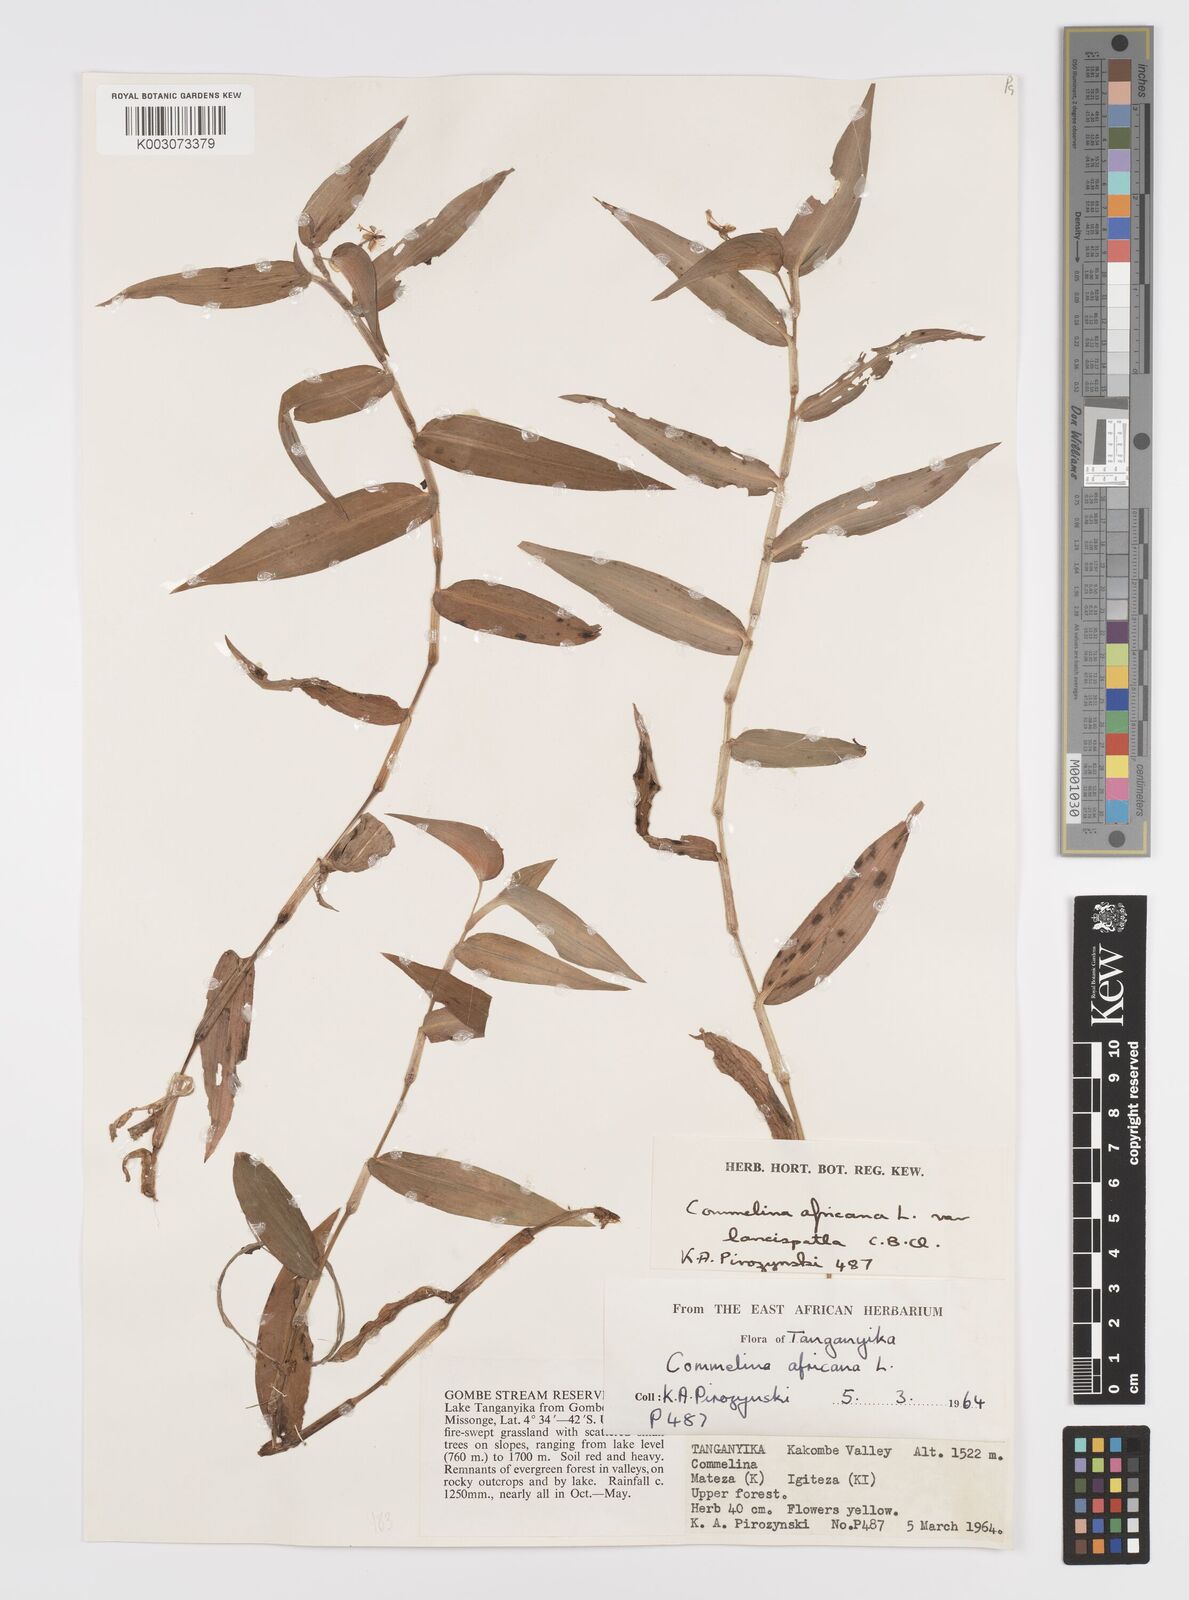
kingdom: Plantae
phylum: Tracheophyta
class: Liliopsida
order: Commelinales
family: Commelinaceae
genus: Commelina
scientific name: Commelina africana
